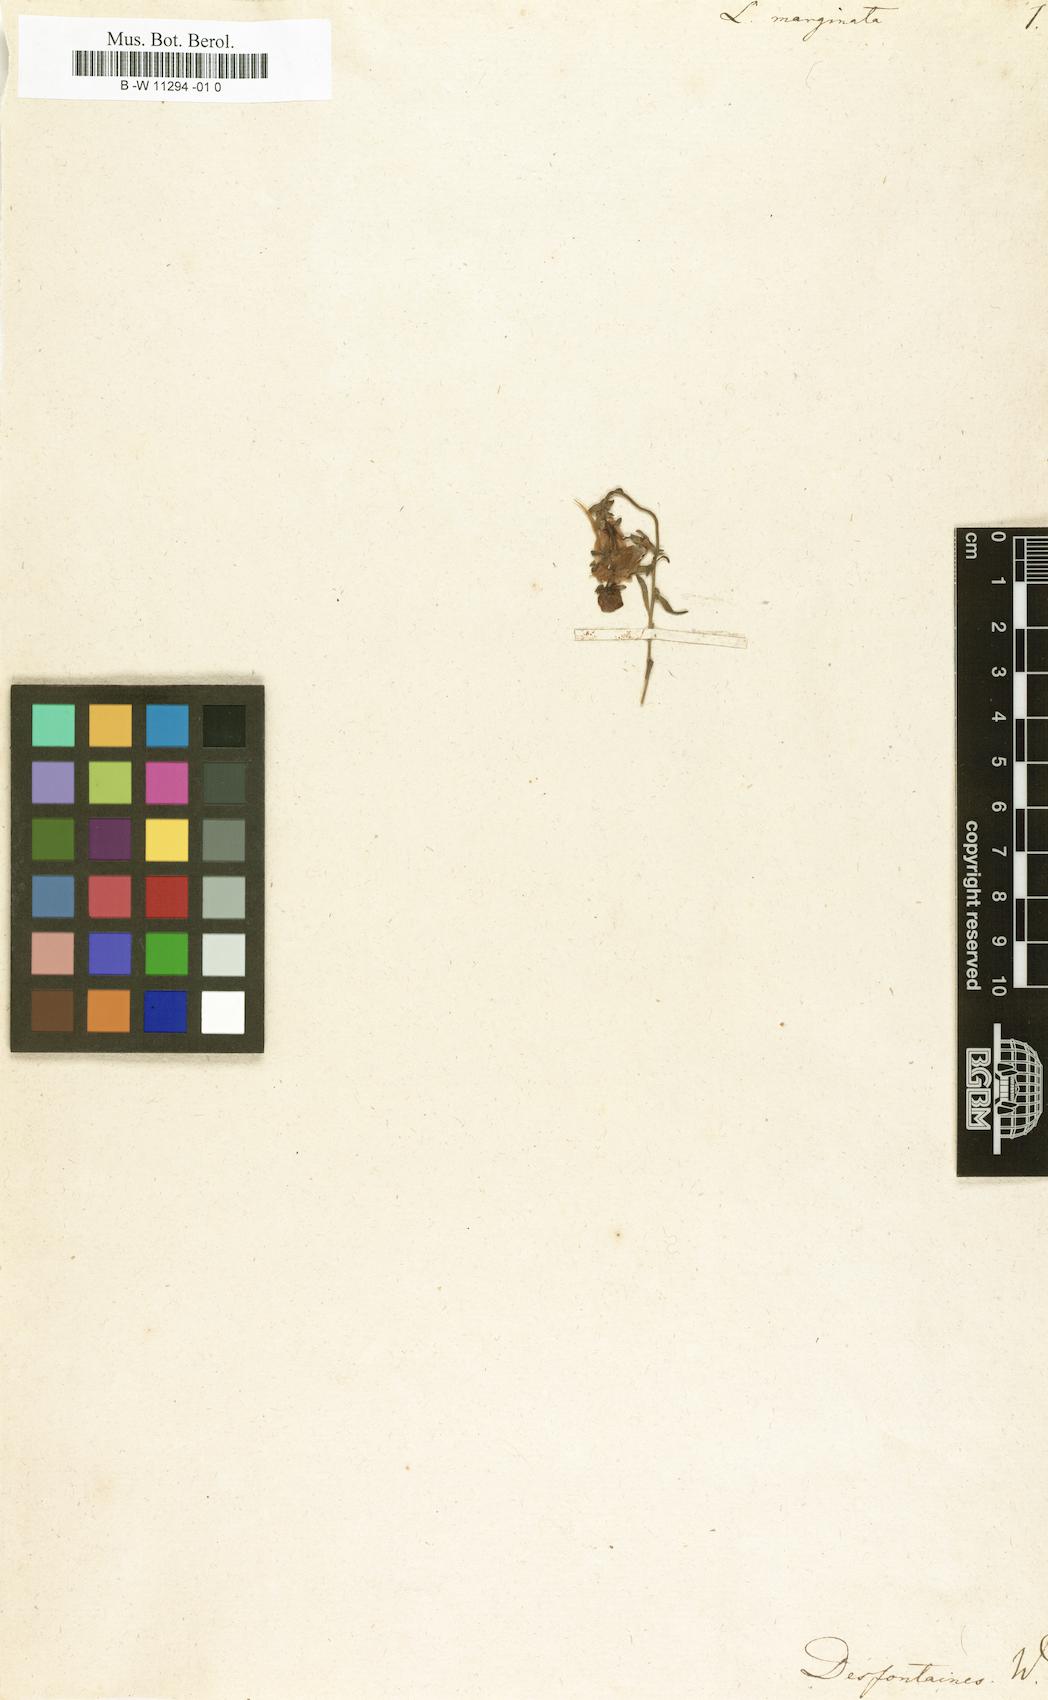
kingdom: Plantae
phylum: Tracheophyta
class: Magnoliopsida
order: Lamiales
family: Plantaginaceae
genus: Linaria
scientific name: Linaria tristis
